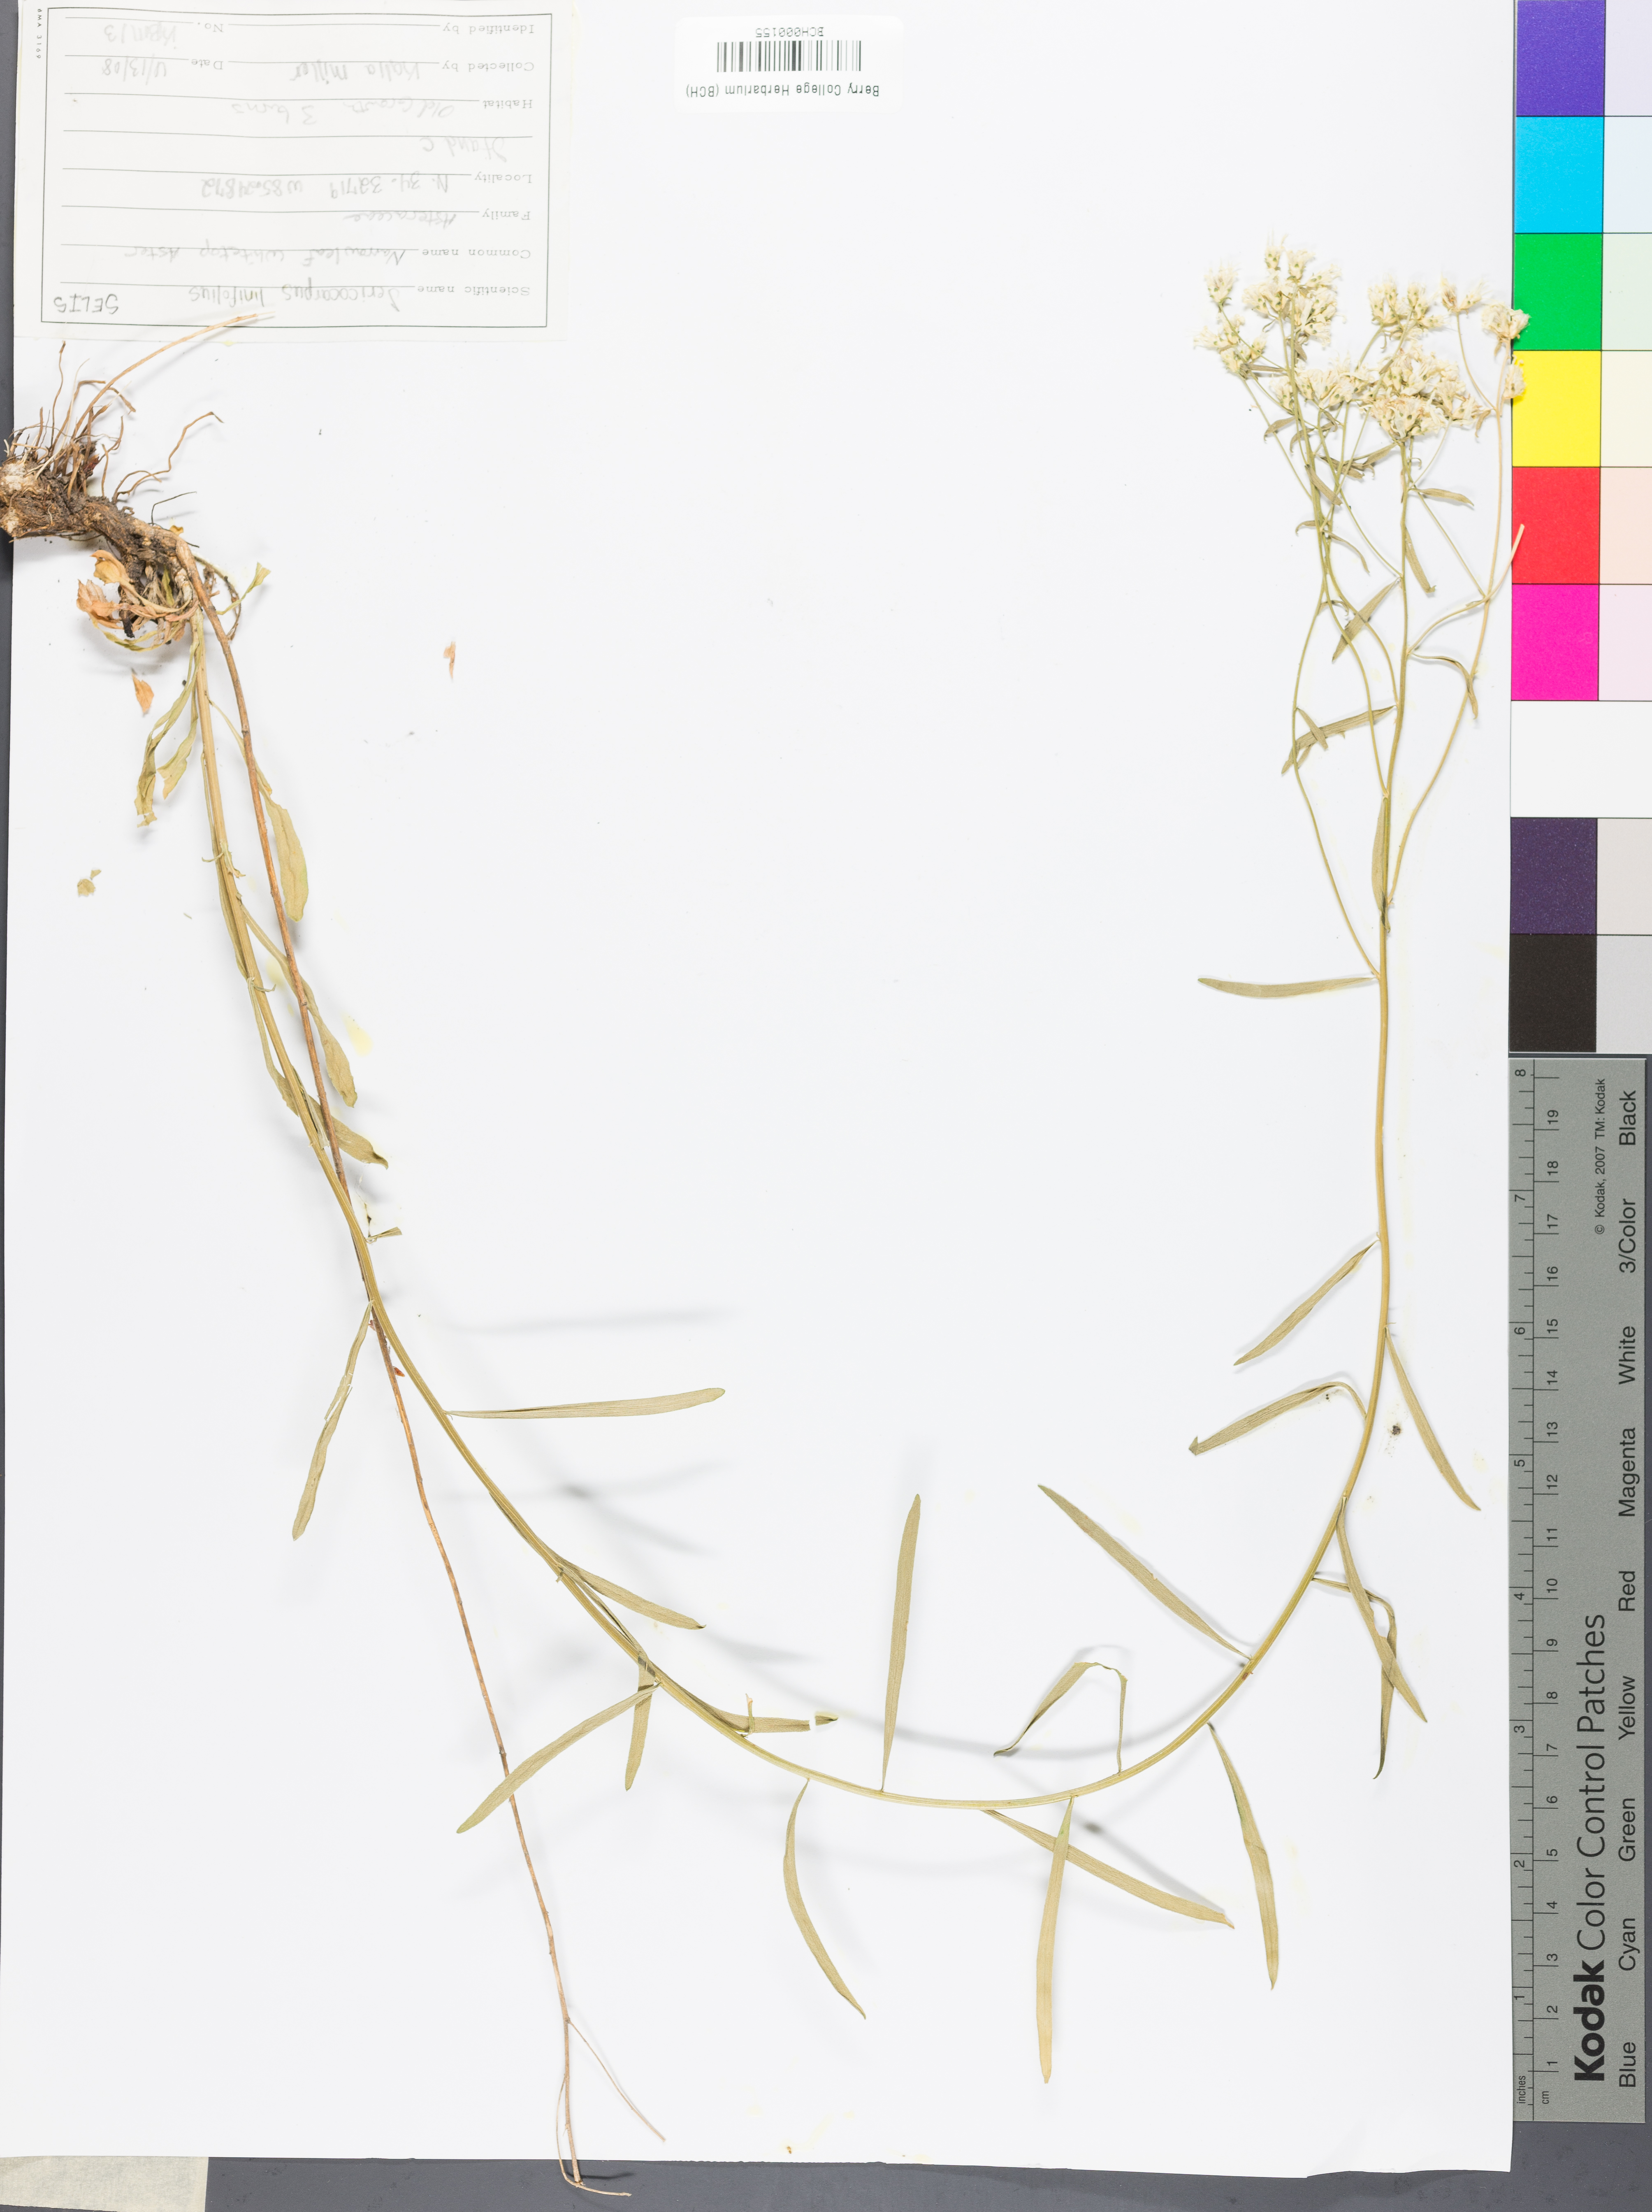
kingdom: Plantae
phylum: Tracheophyta
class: Magnoliopsida
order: Asterales
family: Asteraceae
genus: Sericocarpus
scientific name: Sericocarpus linifolius
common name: Narrow-leaf aster
